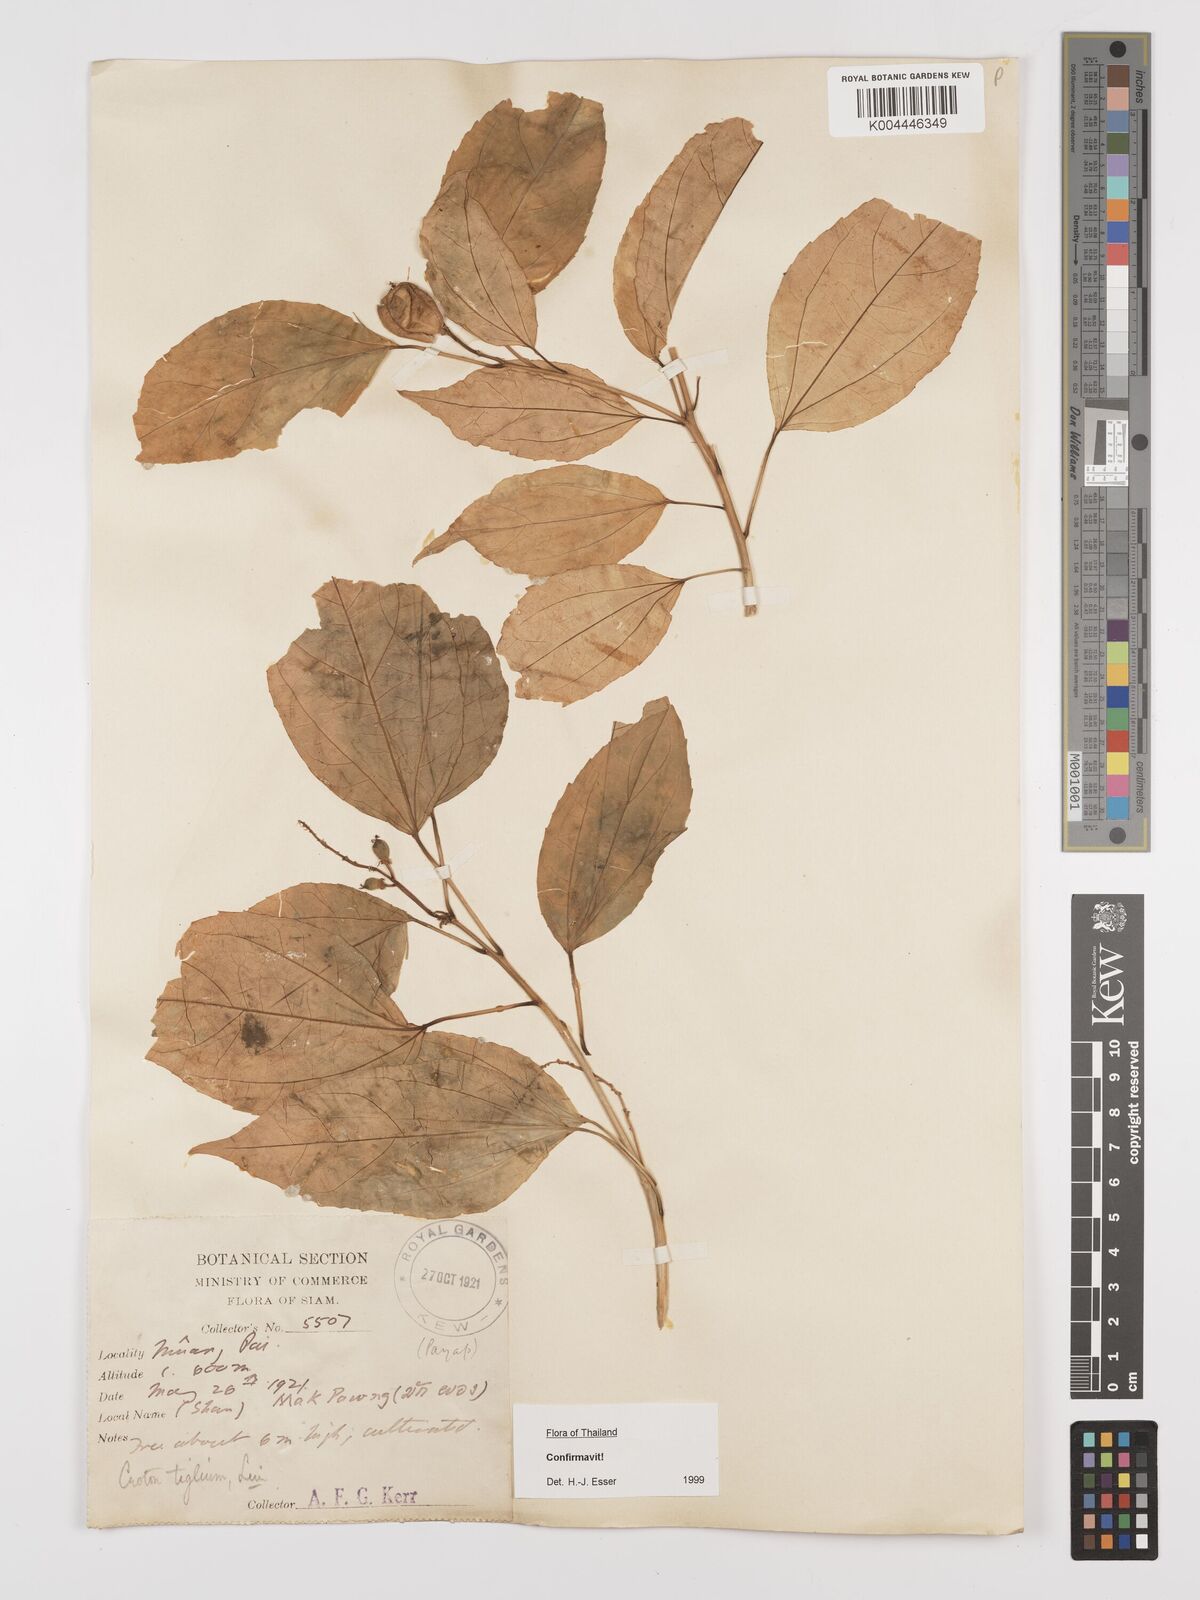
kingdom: Plantae
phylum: Tracheophyta
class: Magnoliopsida
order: Malpighiales
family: Euphorbiaceae
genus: Croton
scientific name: Croton tiglium
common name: Purging croton
